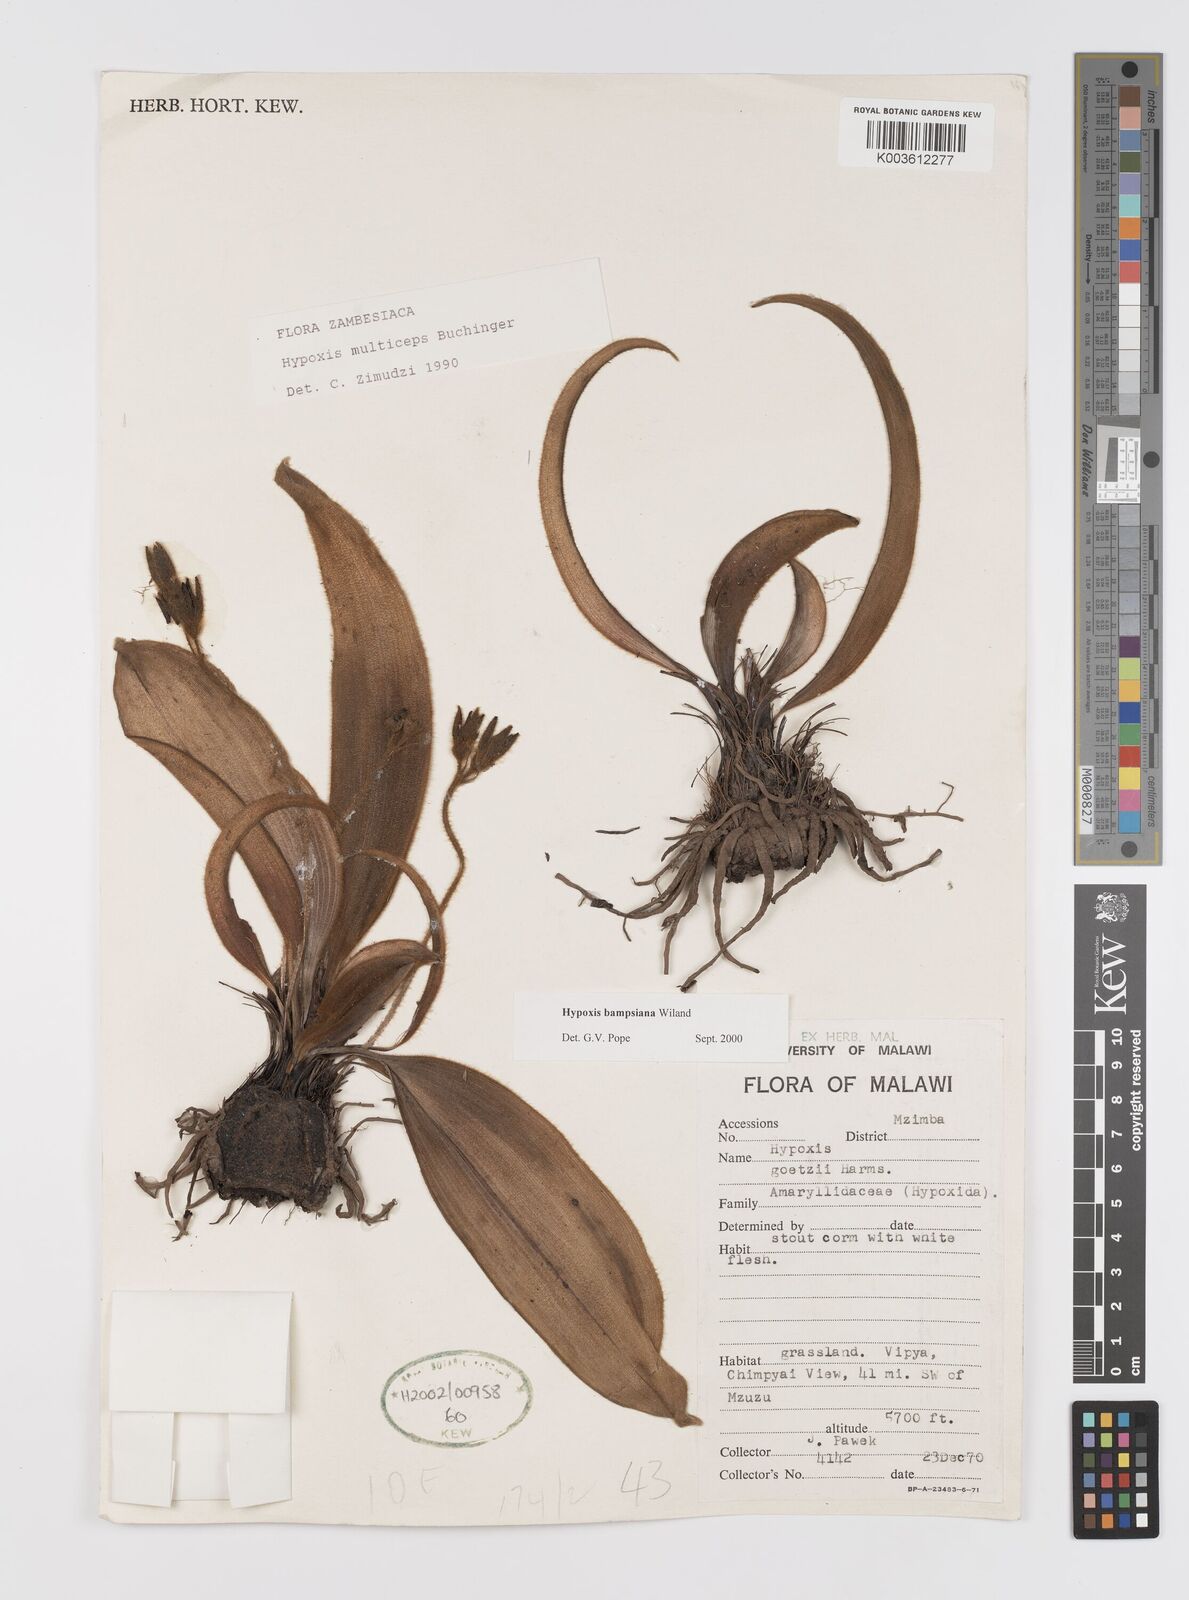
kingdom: Plantae
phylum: Tracheophyta
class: Liliopsida
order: Asparagales
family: Hypoxidaceae
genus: Hypoxis
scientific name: Hypoxis bampsiana
